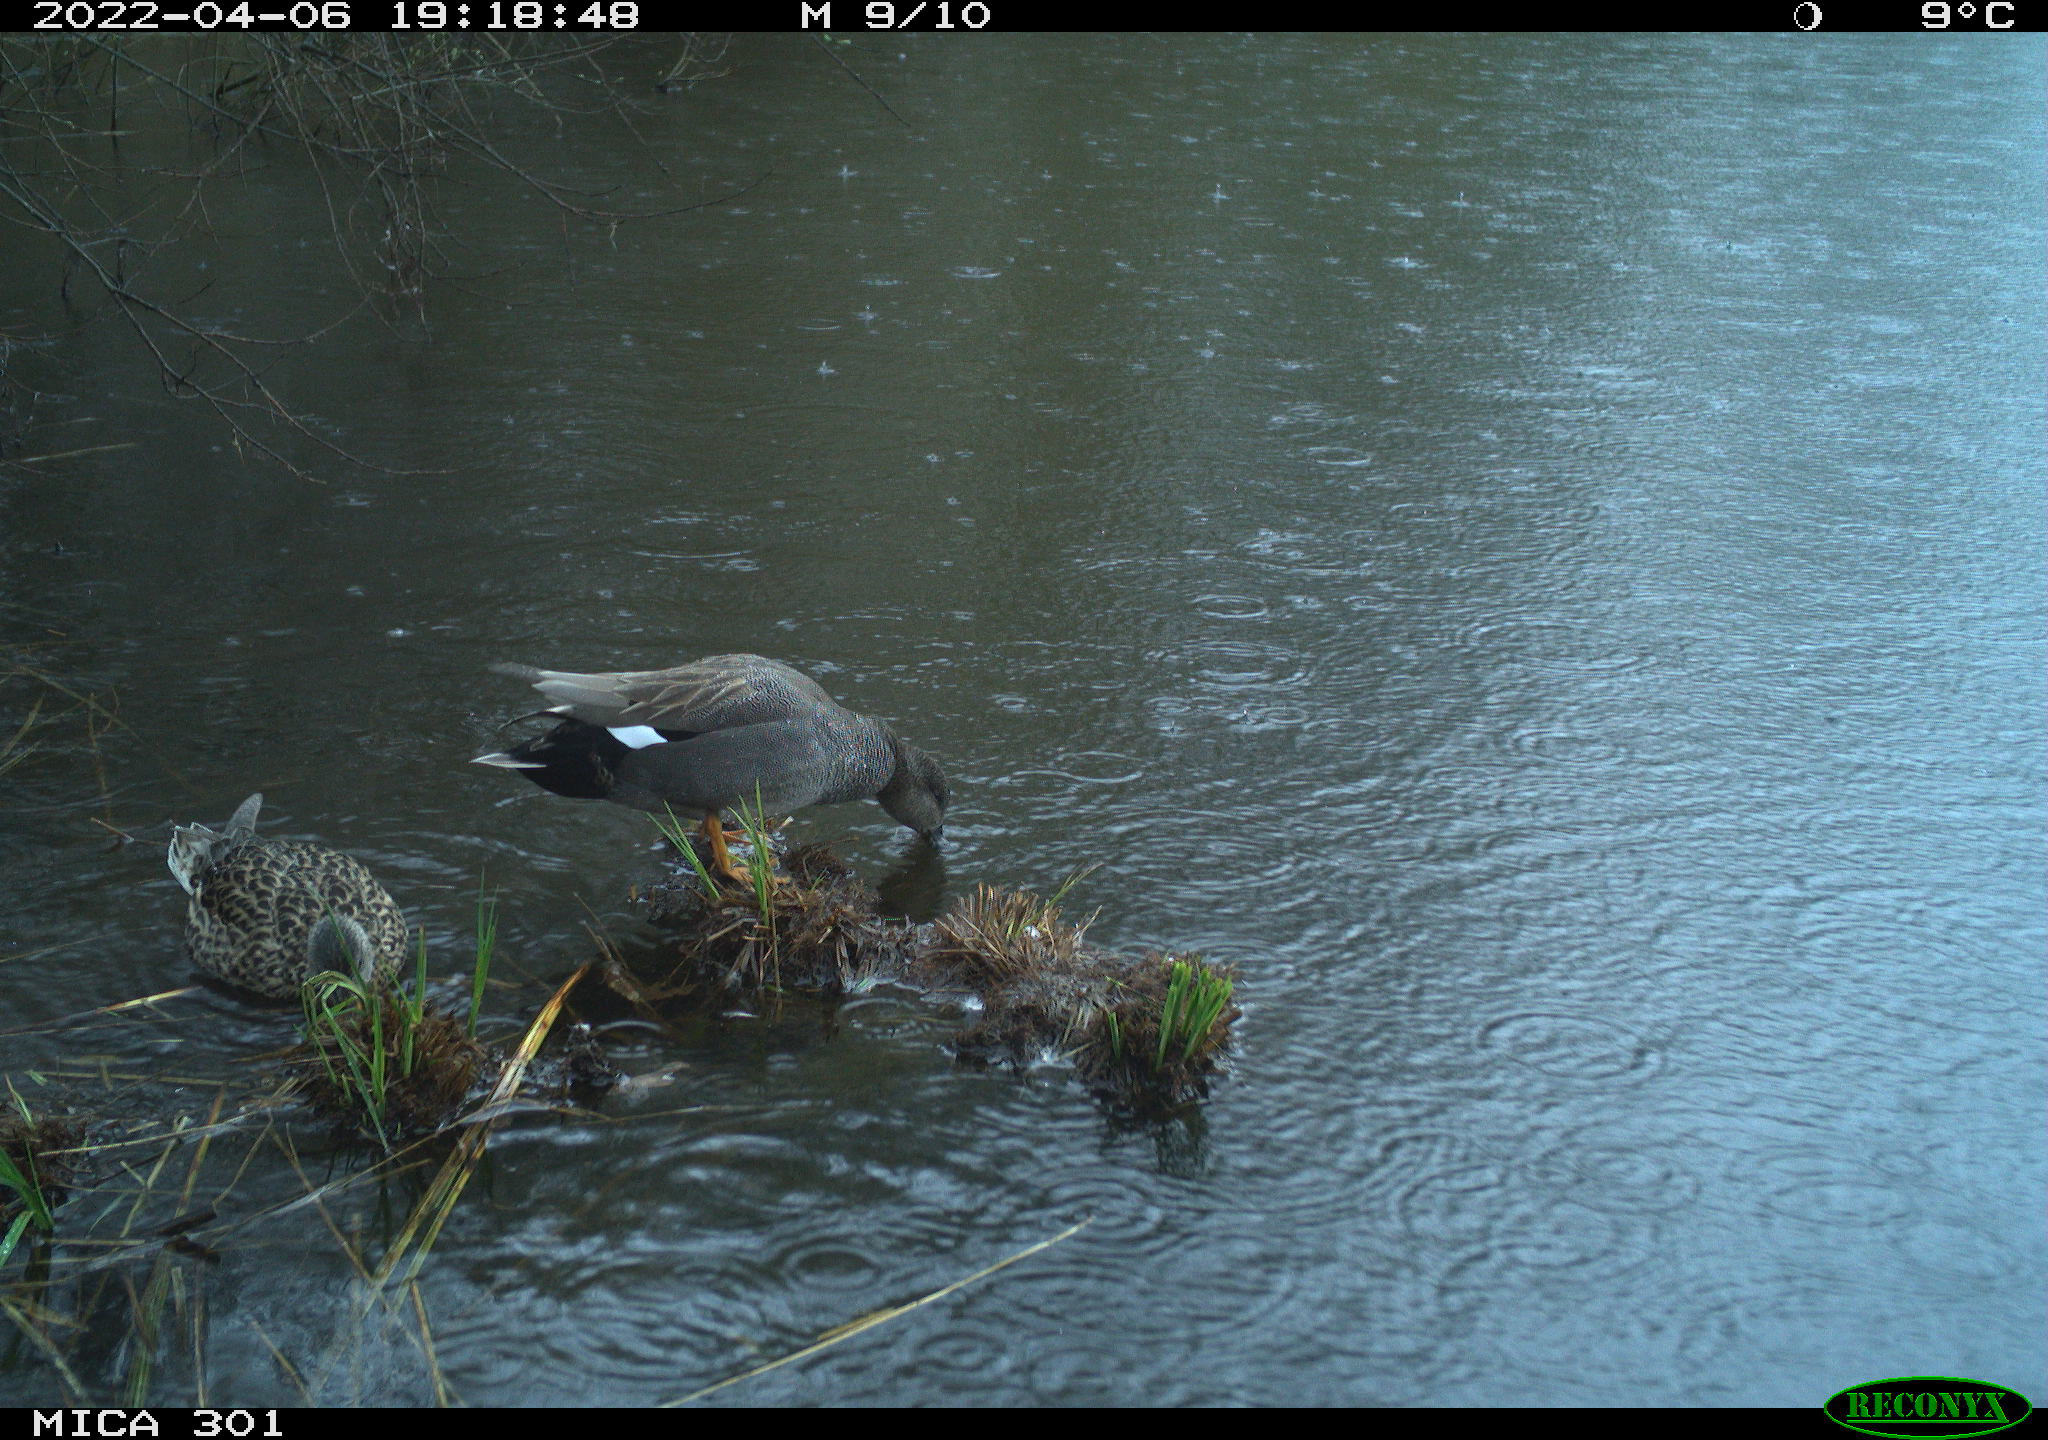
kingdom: Animalia
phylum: Chordata
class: Aves
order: Anseriformes
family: Anatidae
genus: Mareca
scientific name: Mareca strepera
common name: Gadwall
